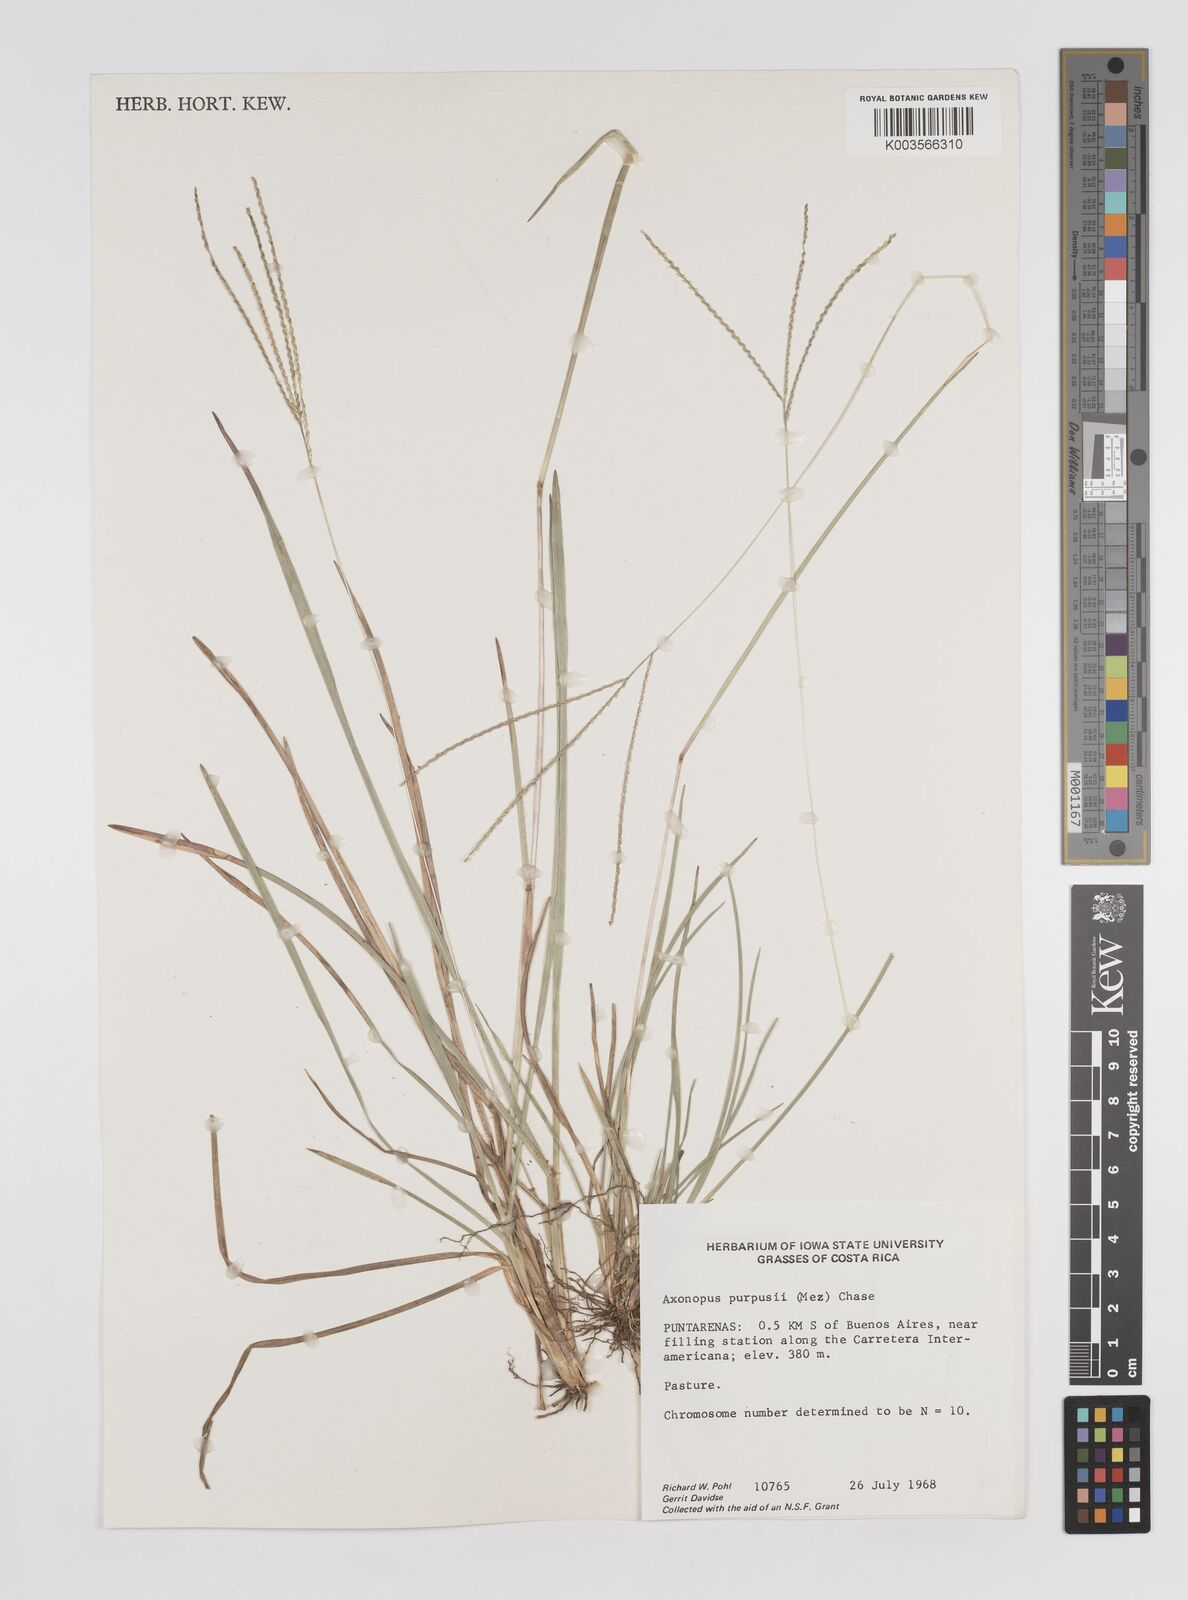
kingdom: Plantae
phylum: Tracheophyta
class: Liliopsida
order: Poales
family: Poaceae
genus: Axonopus
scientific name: Axonopus purpusii
